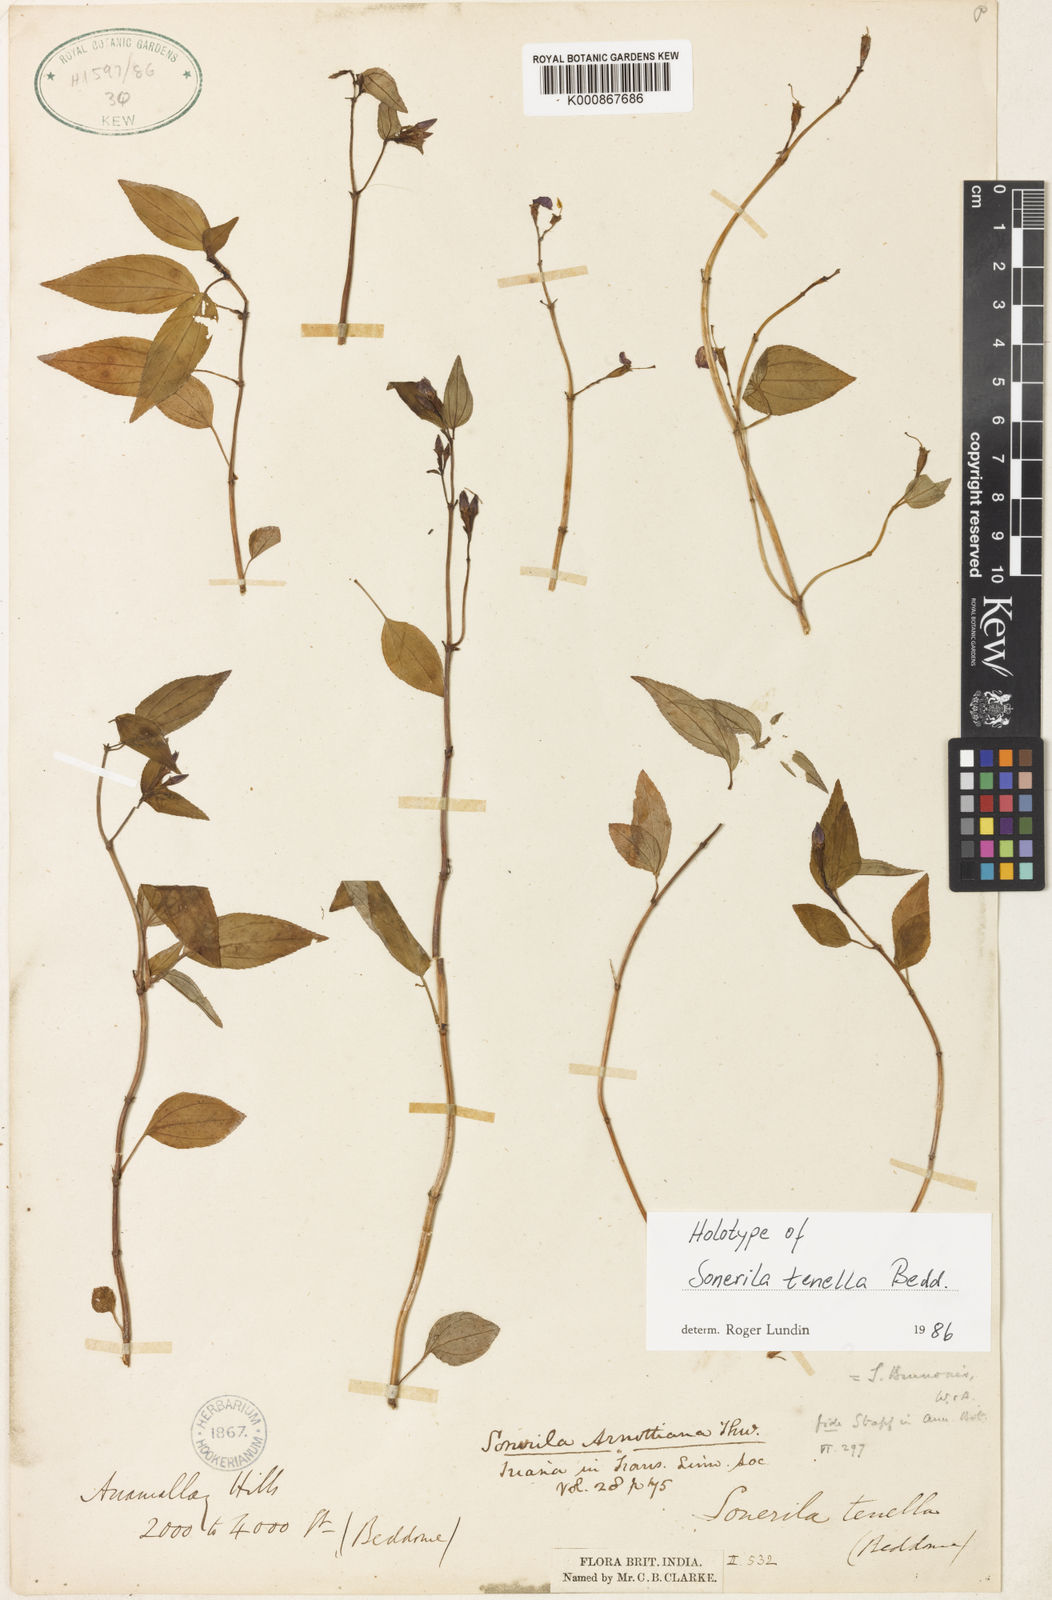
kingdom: Plantae
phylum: Tracheophyta
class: Magnoliopsida
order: Myrtales
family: Melastomataceae
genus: Sonerila
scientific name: Sonerila hookeriana
